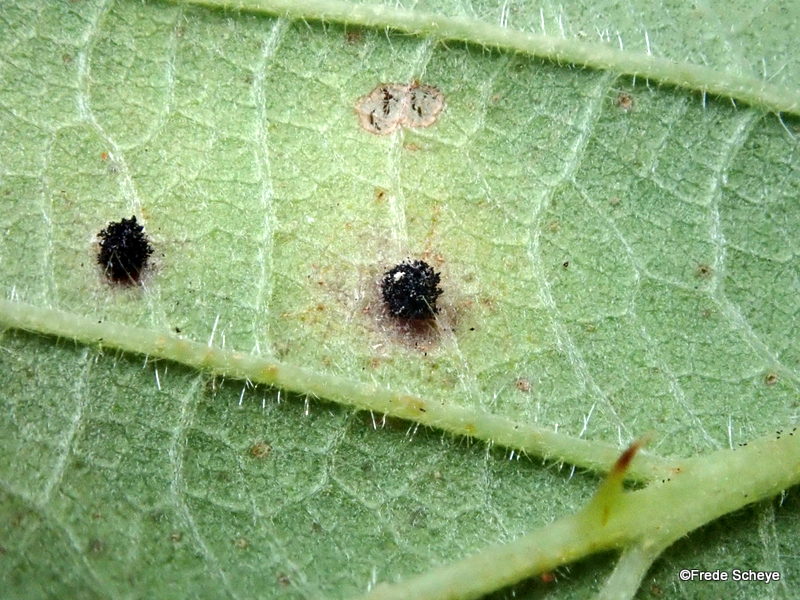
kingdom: Fungi
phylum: Basidiomycota
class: Pucciniomycetes
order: Pucciniales
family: Phragmidiaceae
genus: Phragmidium
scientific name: Phragmidium violaceum
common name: violet flercellerust
